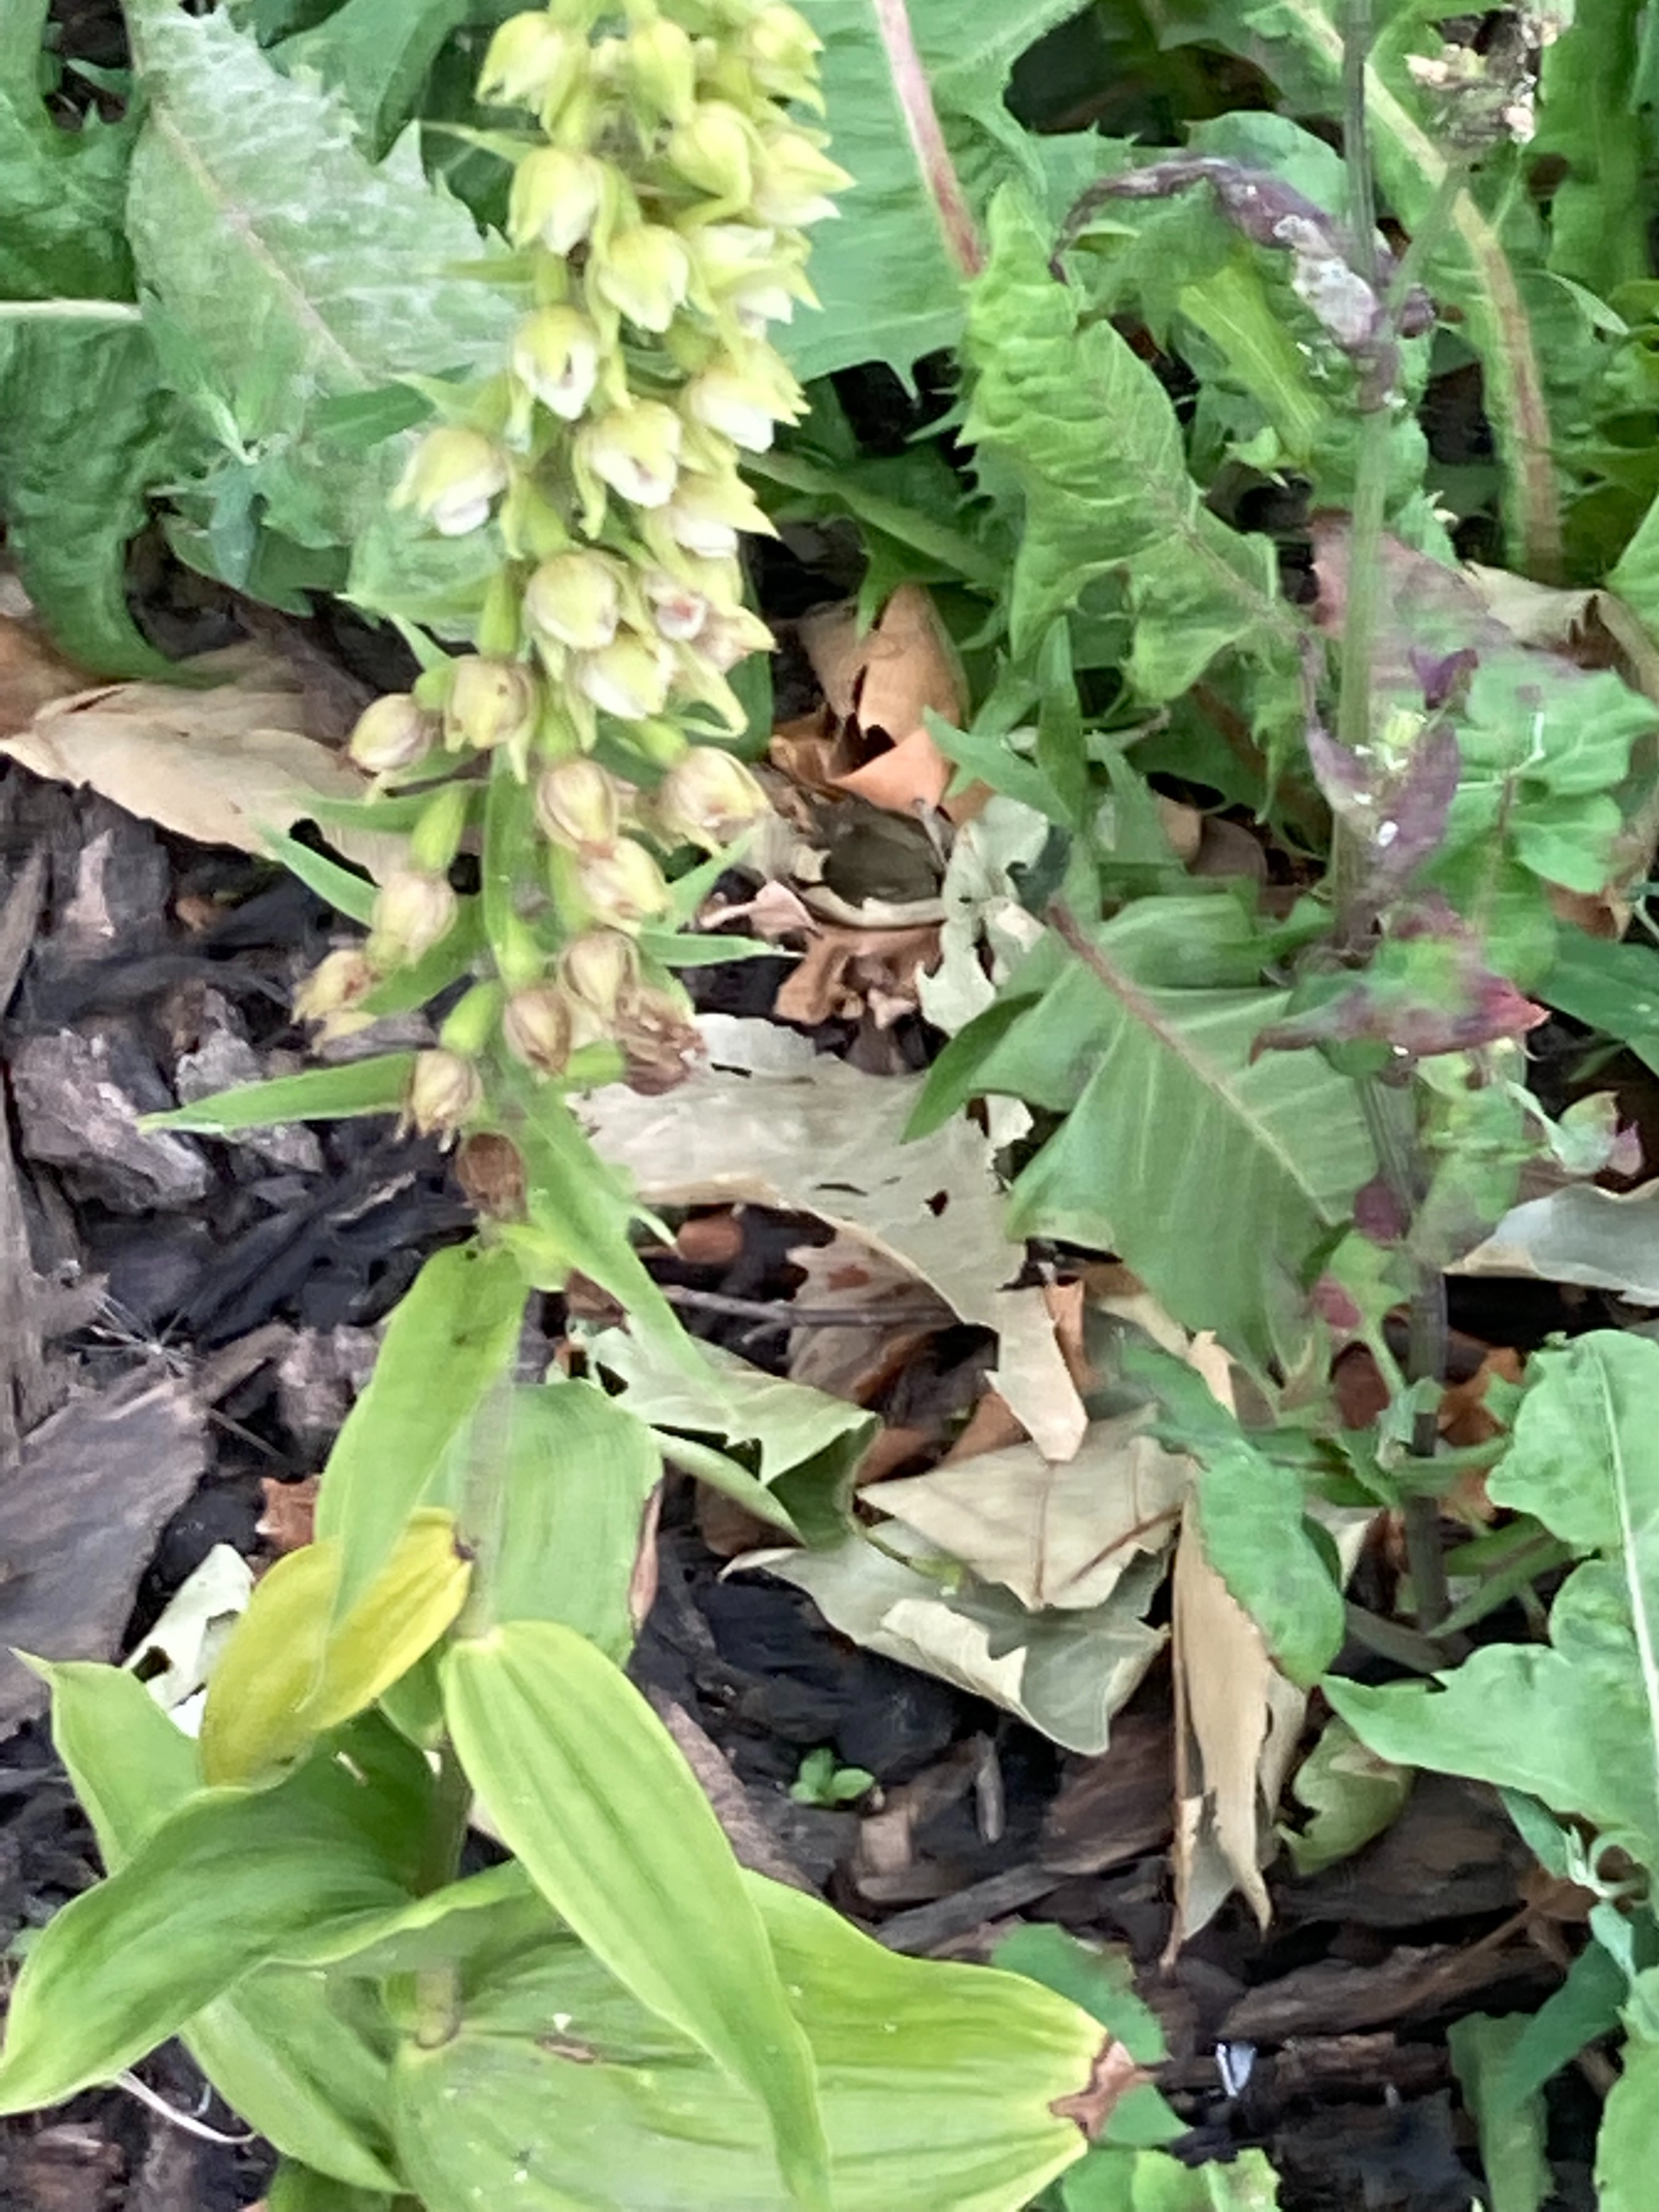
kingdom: Plantae
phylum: Tracheophyta
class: Liliopsida
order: Asparagales
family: Orchidaceae
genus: Epipactis
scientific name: Epipactis helleborine
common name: Skov-hullæbe (underart)
